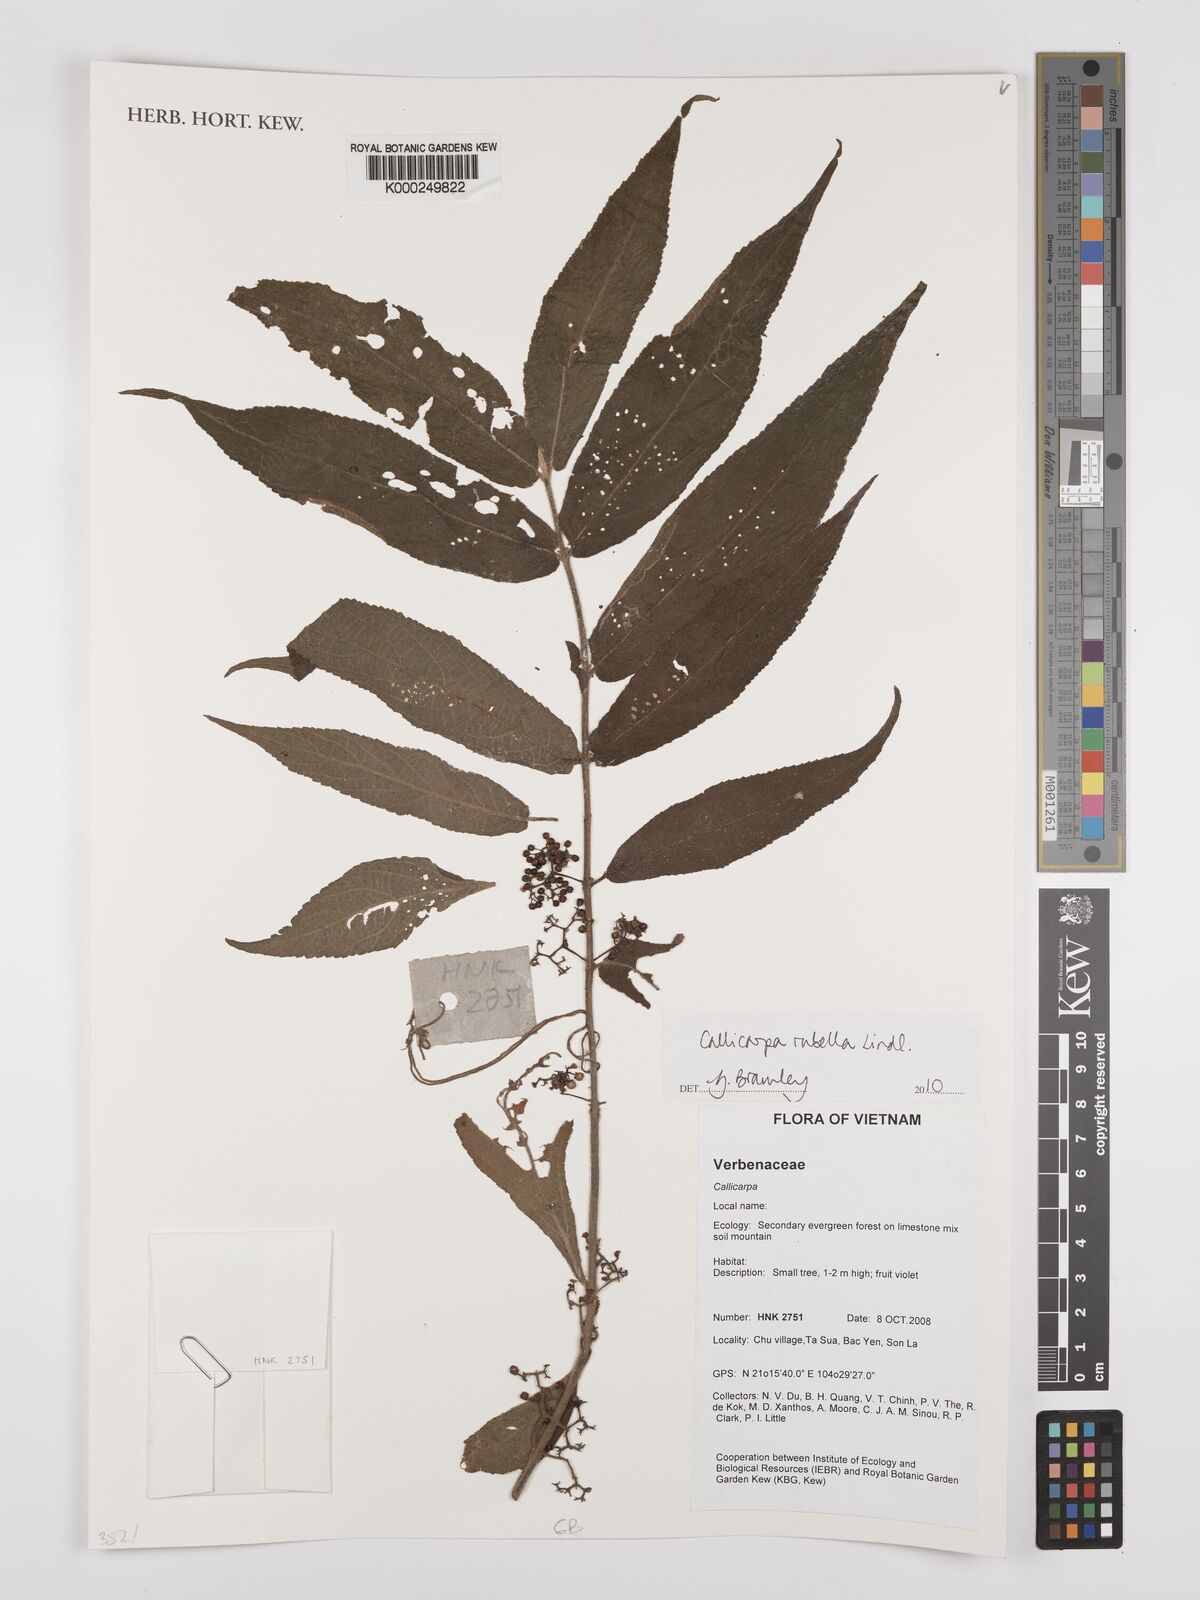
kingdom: Plantae
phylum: Tracheophyta
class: Magnoliopsida
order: Lamiales
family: Lamiaceae
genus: Callicarpa
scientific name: Callicarpa rubella
